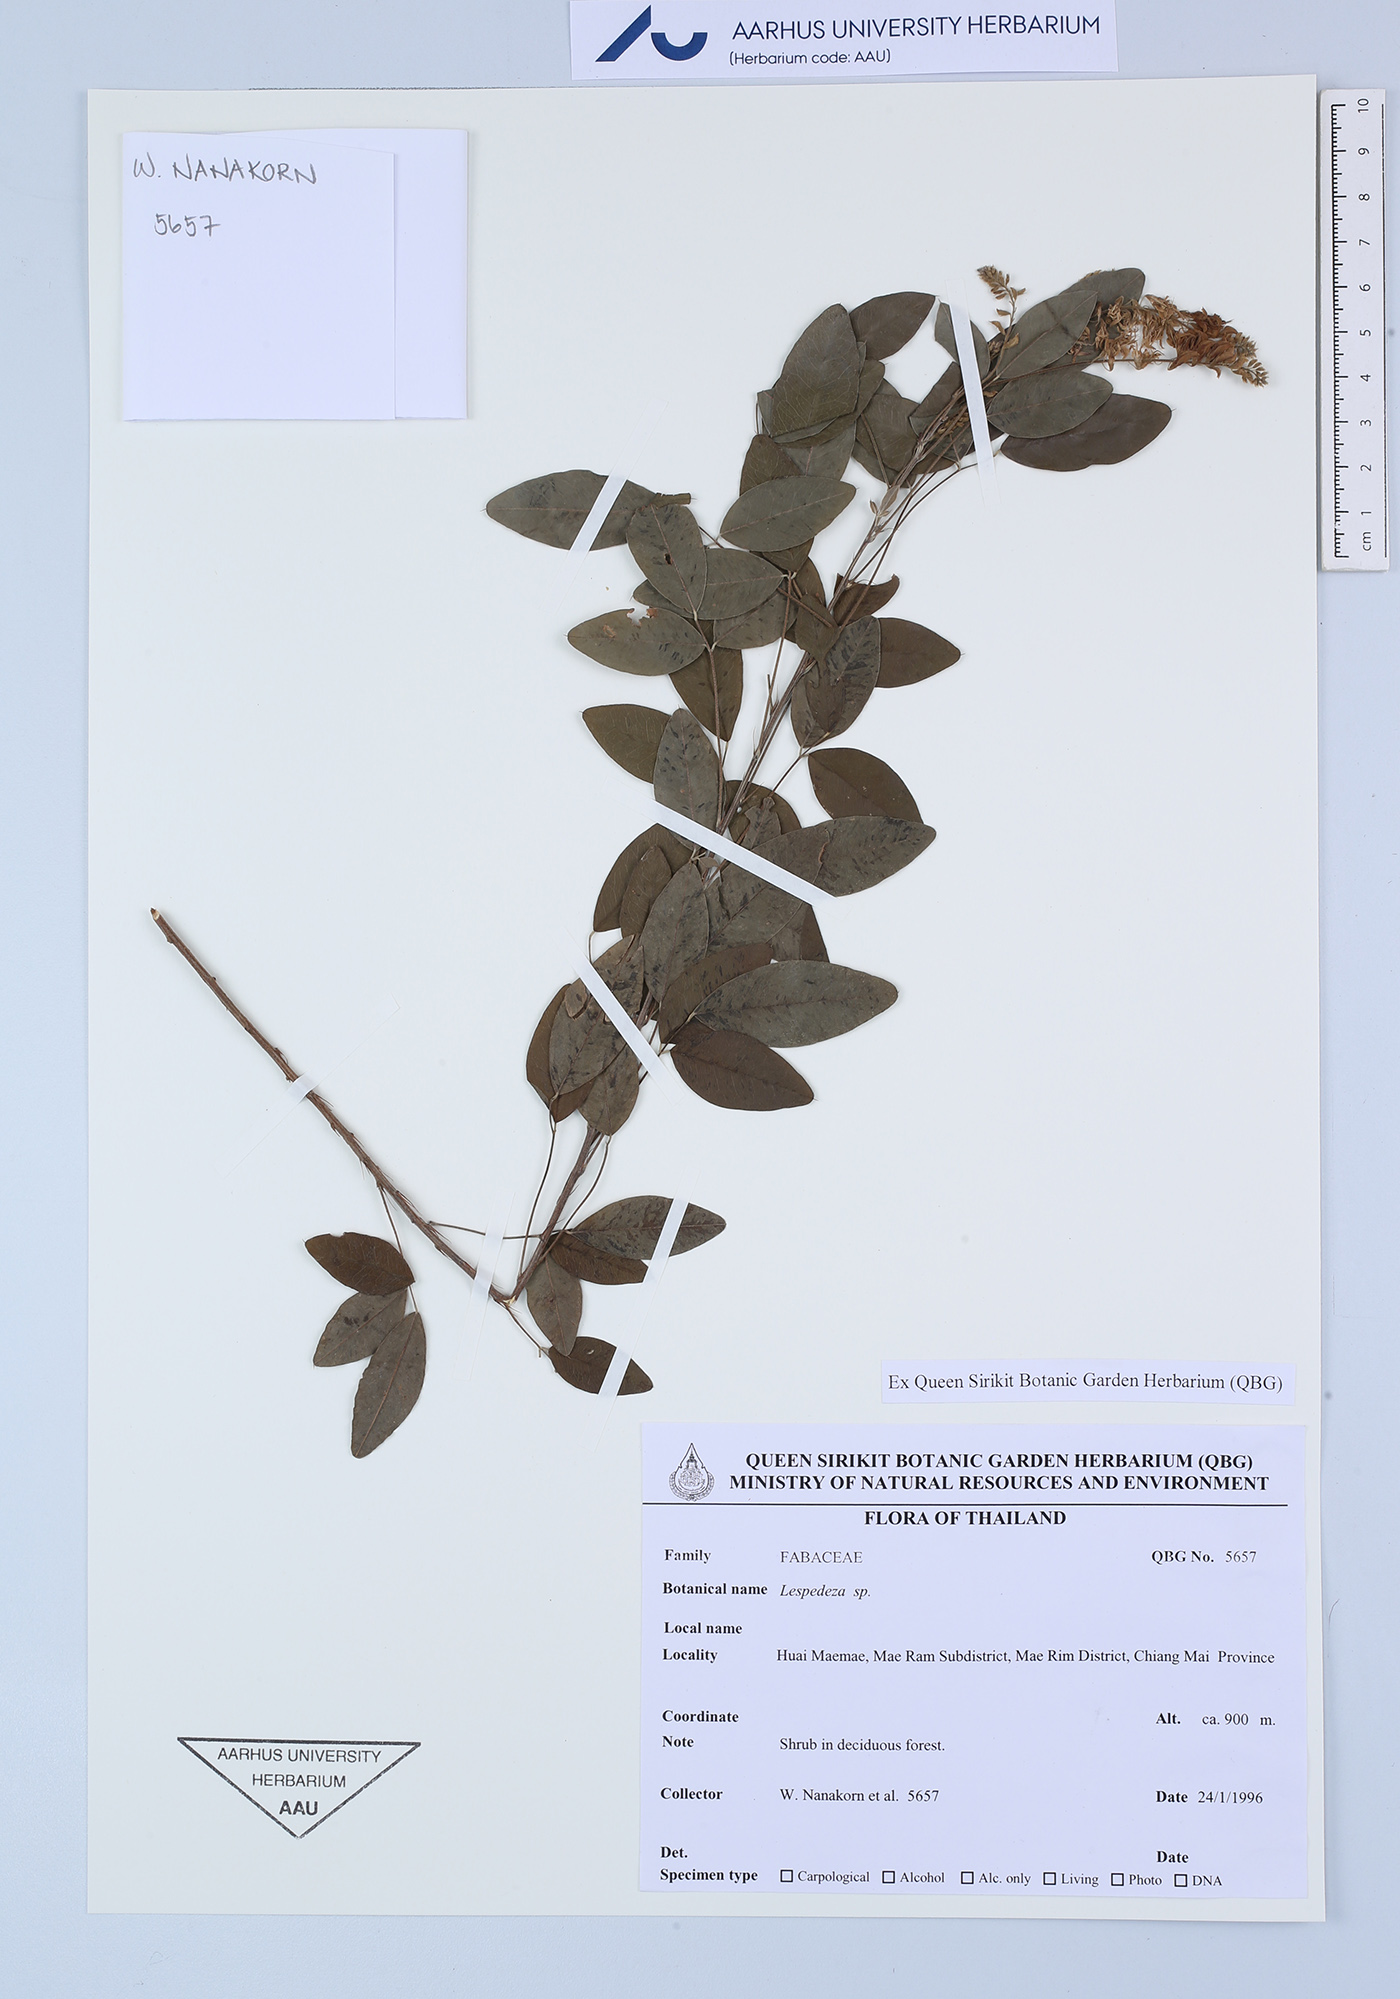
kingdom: Plantae
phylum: Tracheophyta
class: Magnoliopsida
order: Fabales
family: Fabaceae
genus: Lespedeza
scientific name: Lespedeza
